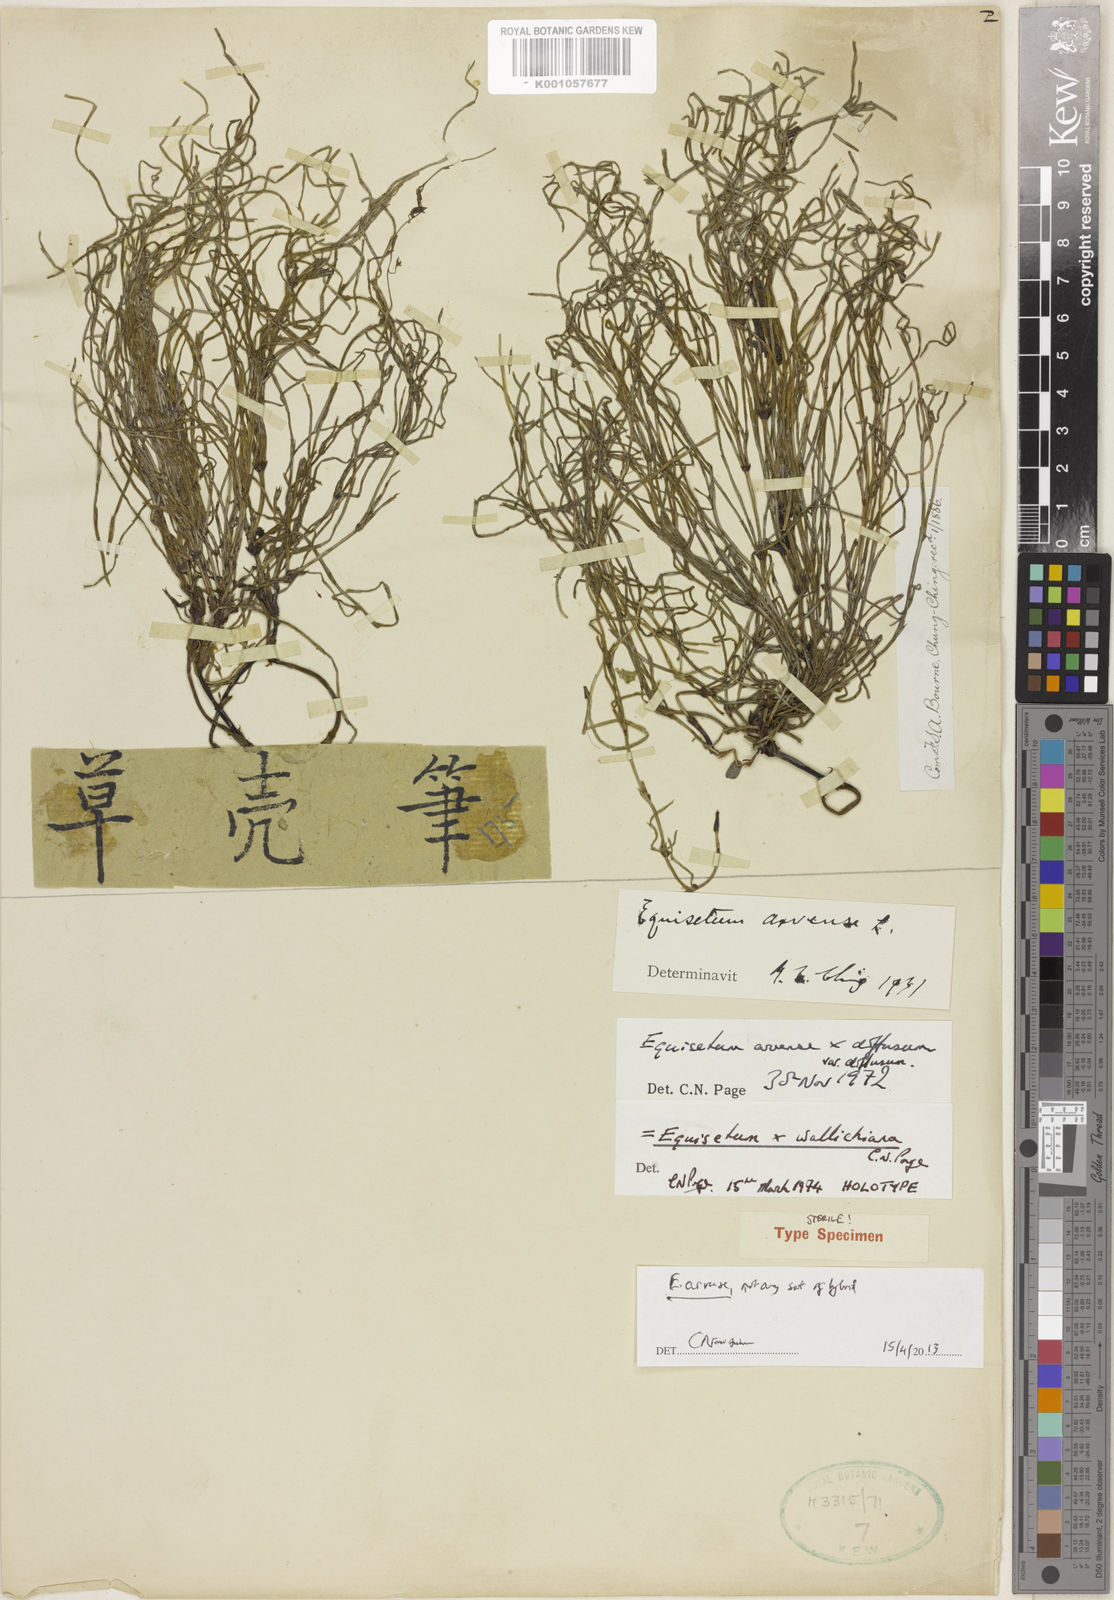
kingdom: Plantae
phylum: Tracheophyta
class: Polypodiopsida
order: Equisetales
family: Equisetaceae
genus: Equisetum
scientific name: Equisetum arvense
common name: Field horsetail
